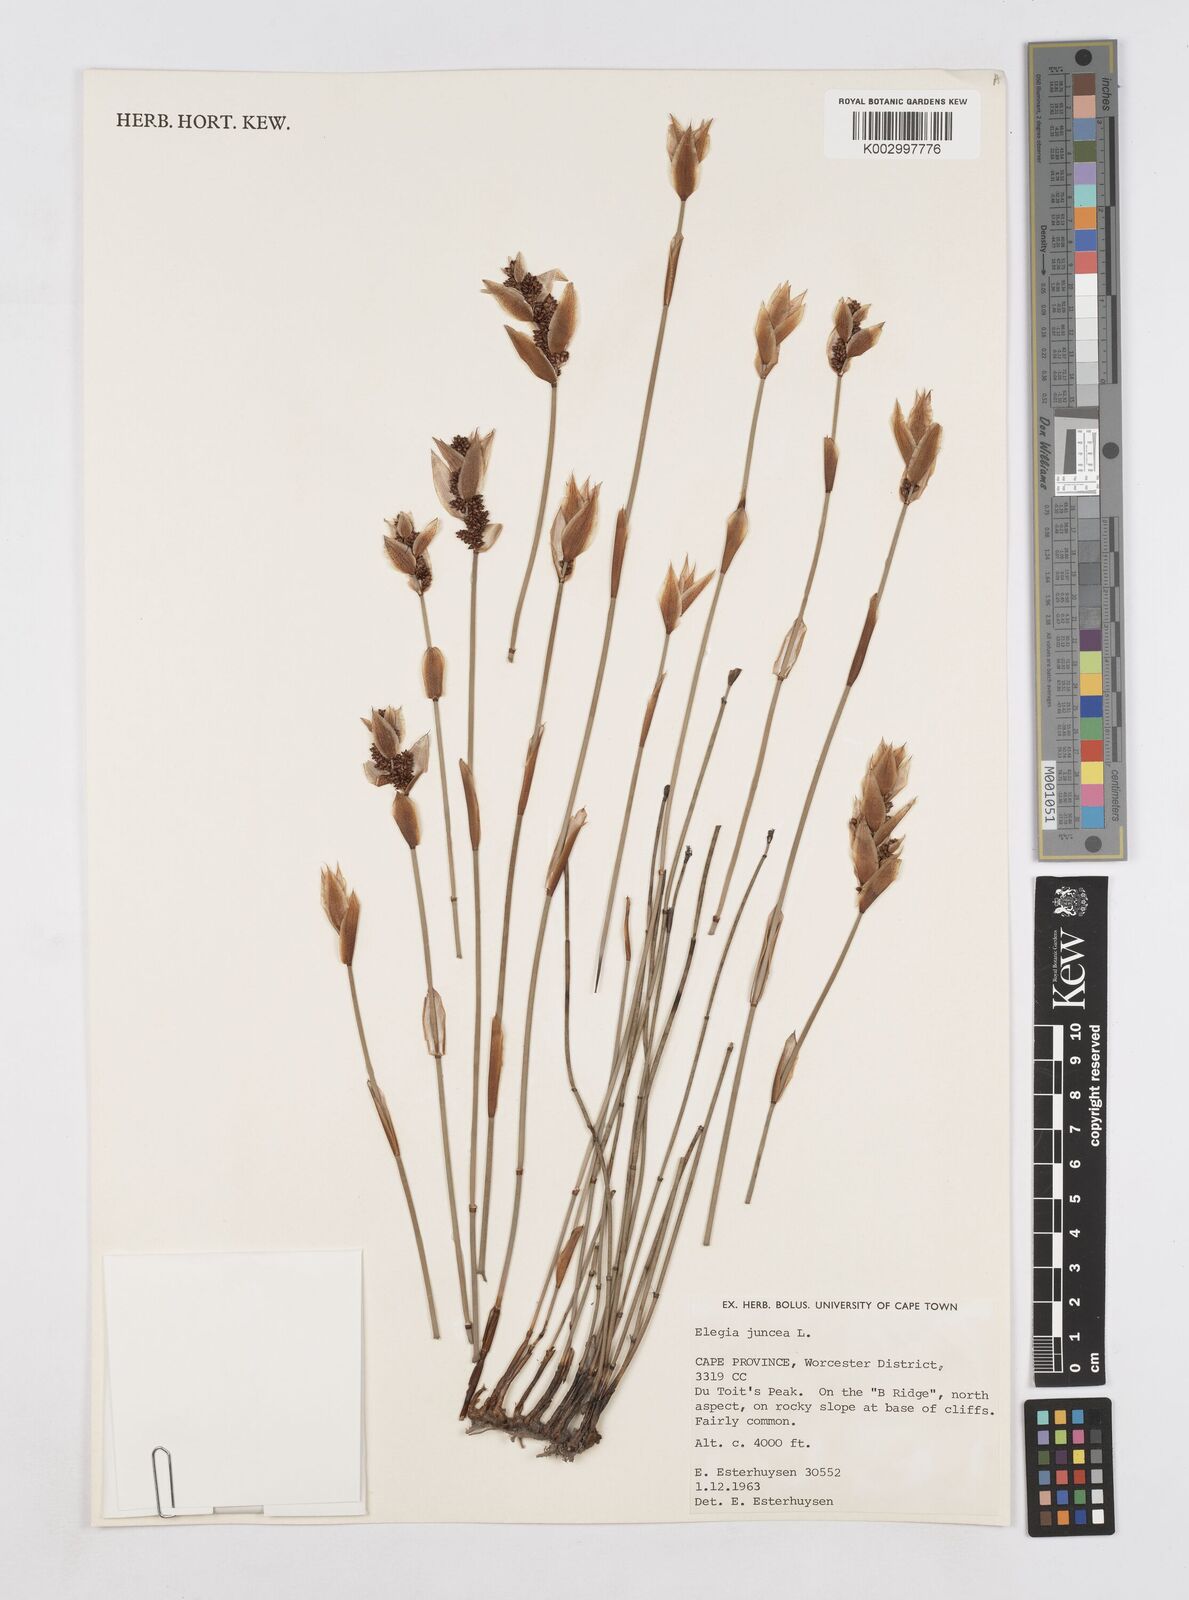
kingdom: Plantae
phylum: Tracheophyta
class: Liliopsida
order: Poales
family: Restionaceae
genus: Elegia
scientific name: Elegia juncea
